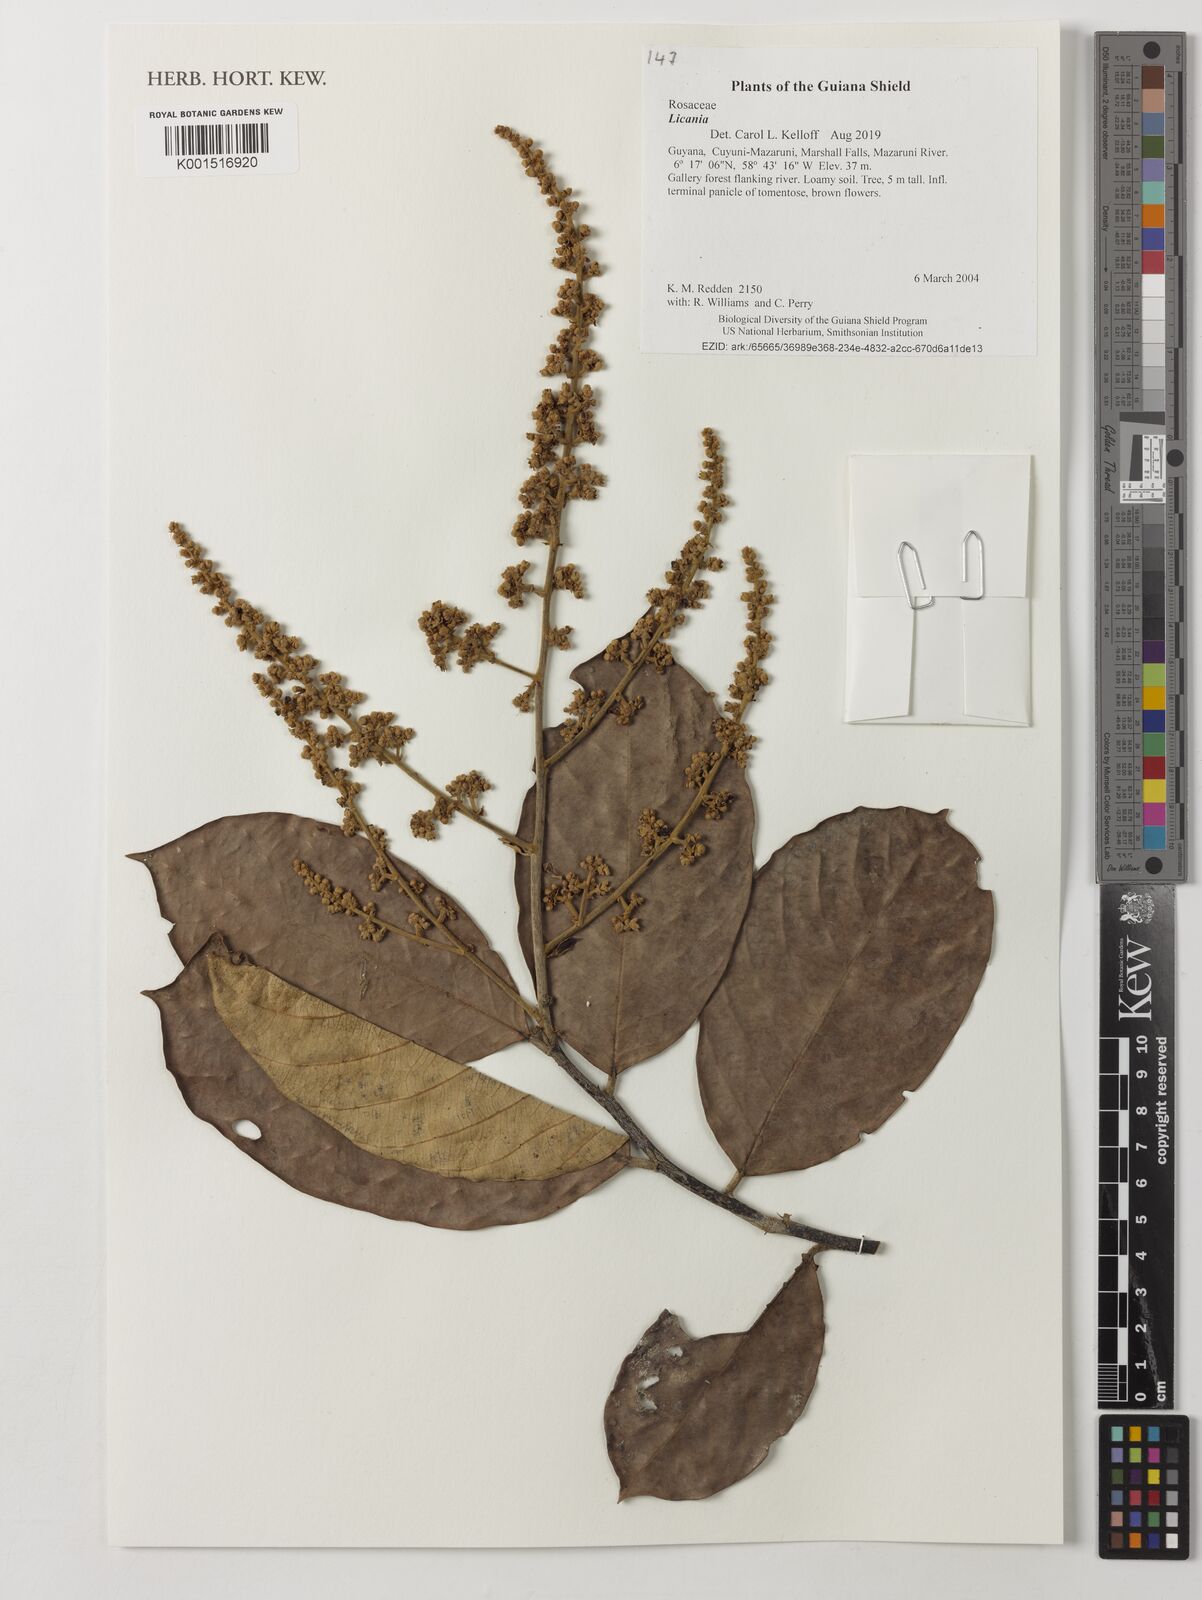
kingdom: Plantae
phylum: Tracheophyta
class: Magnoliopsida
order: Malpighiales
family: Chrysobalanaceae
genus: Licania
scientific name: Licania
